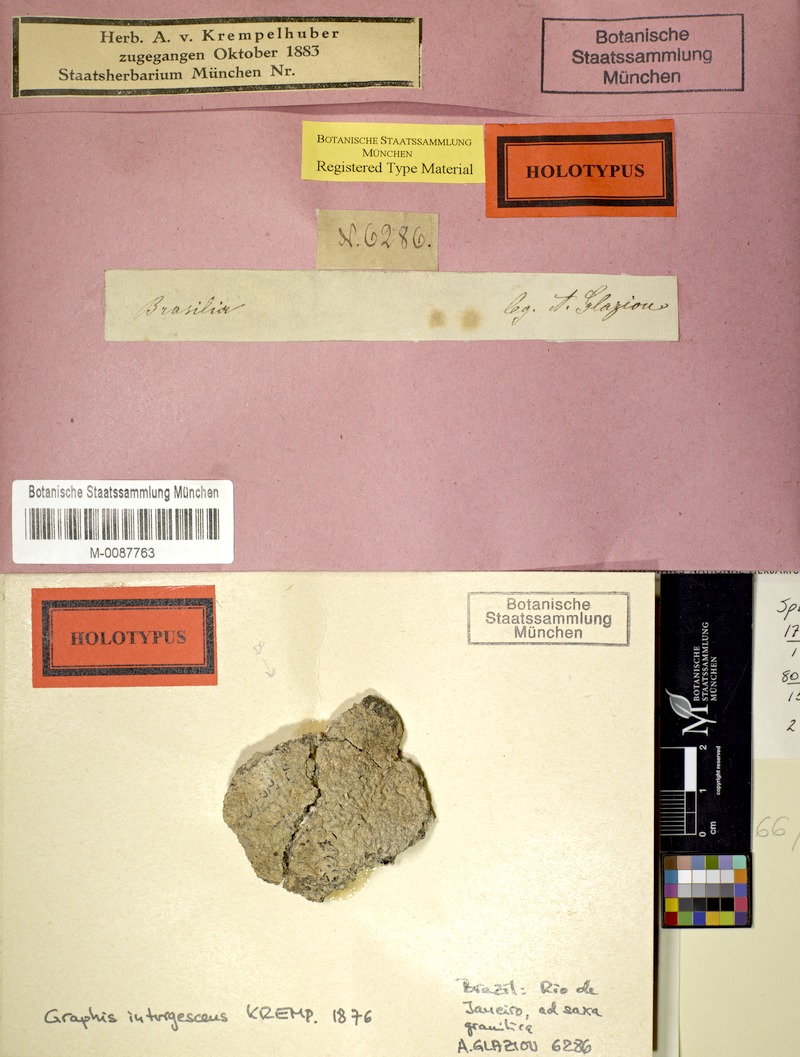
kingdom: Fungi
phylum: Ascomycota
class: Lecanoromycetes
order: Ostropales
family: Graphidaceae
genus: Allographa
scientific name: Allographa inturgescens
